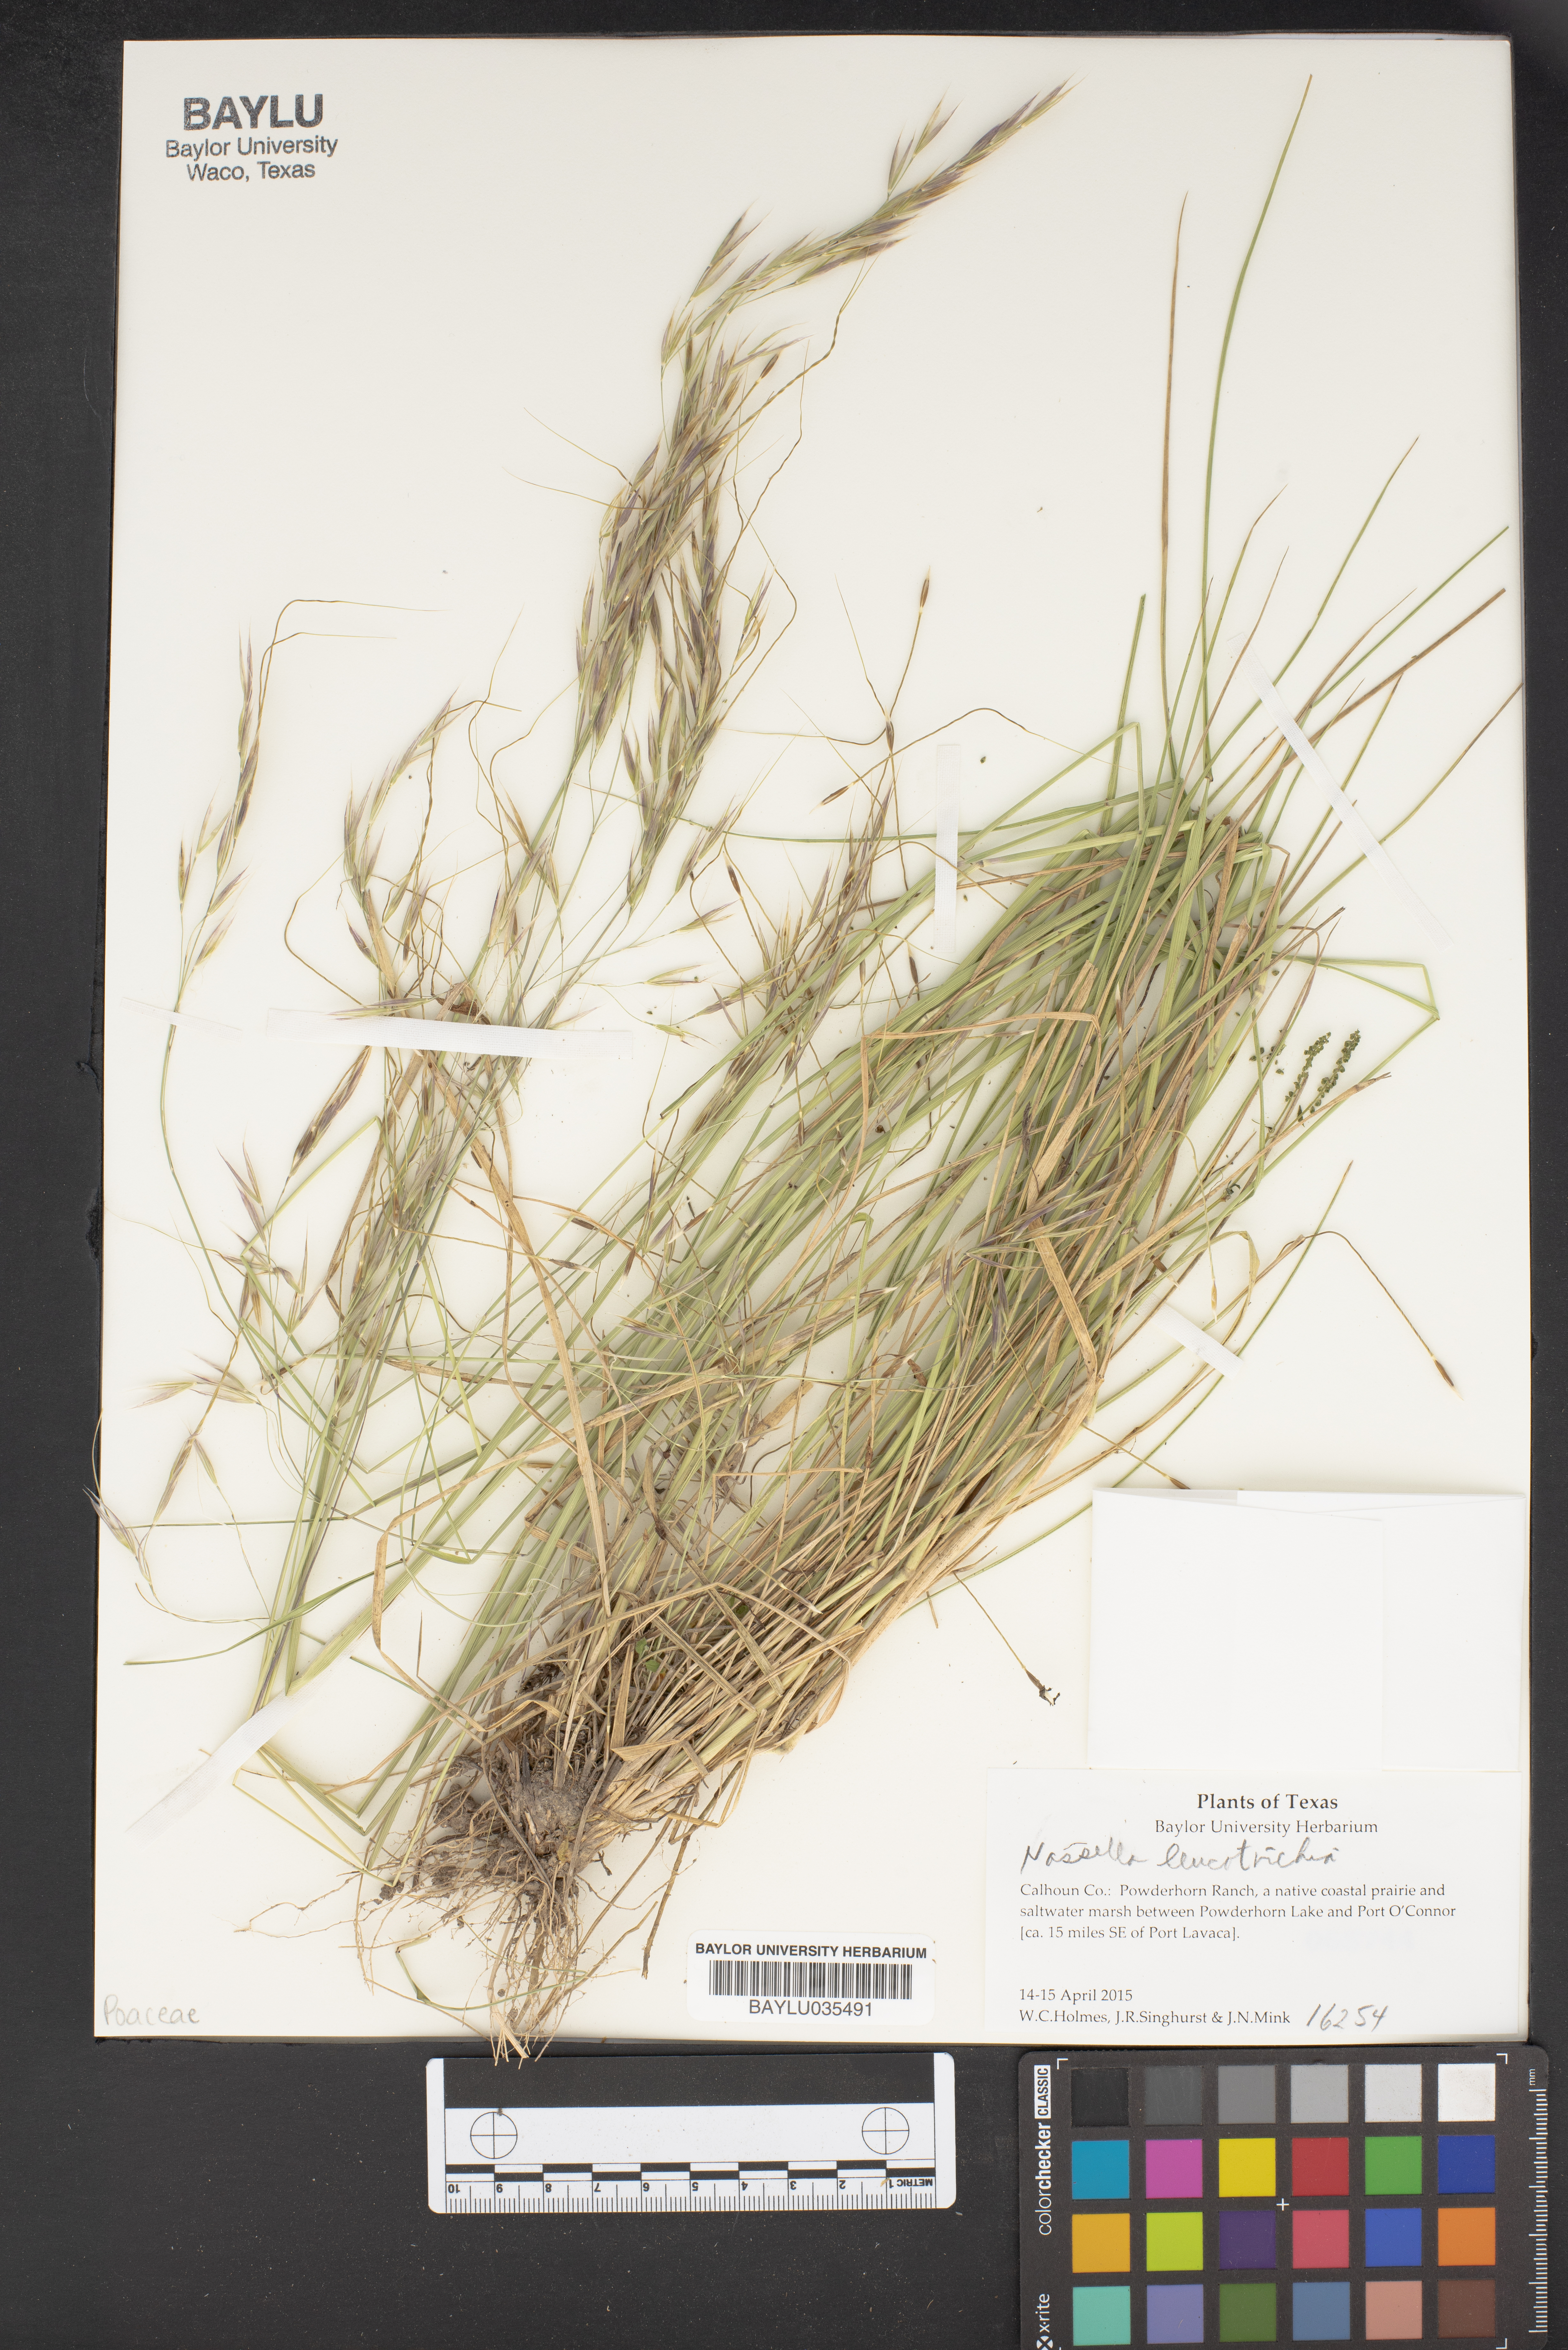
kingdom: Plantae
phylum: Tracheophyta
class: Liliopsida
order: Poales
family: Poaceae
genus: Nassella
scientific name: Nassella leucotricha
